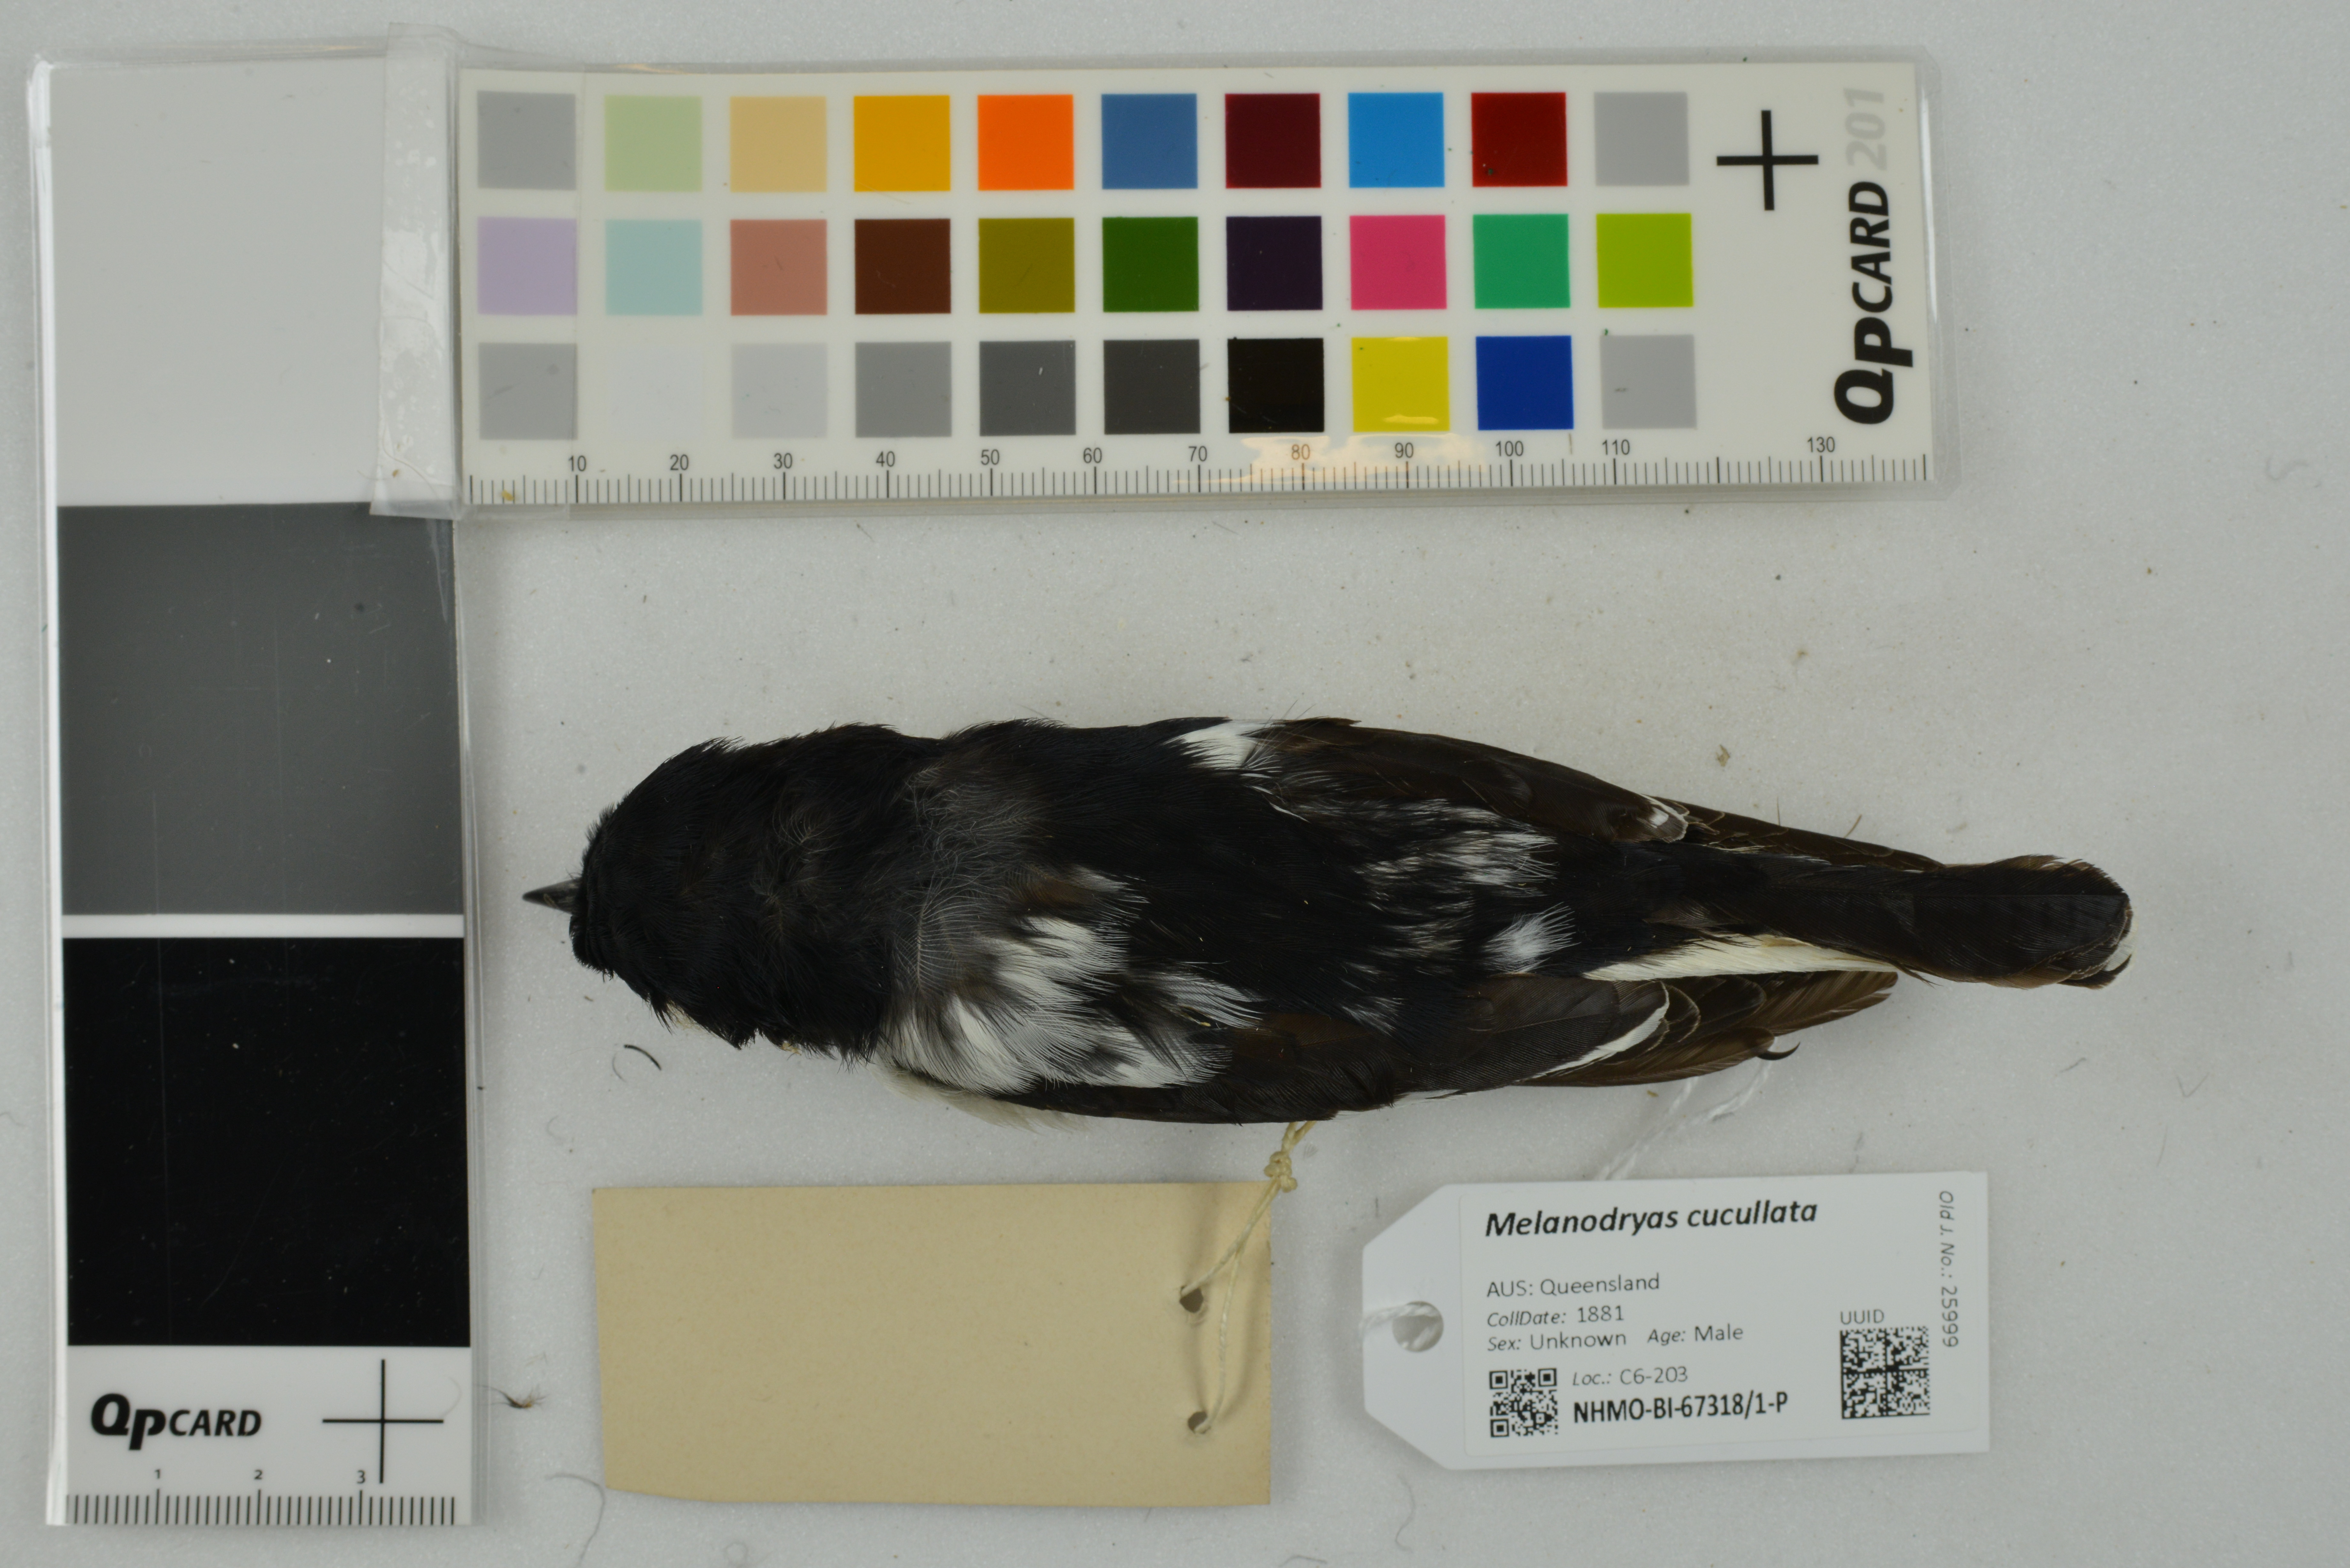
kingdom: Animalia
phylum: Chordata
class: Aves
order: Passeriformes
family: Petroicidae
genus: Melanodryas
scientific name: Melanodryas cucullata
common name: Hooded robin
